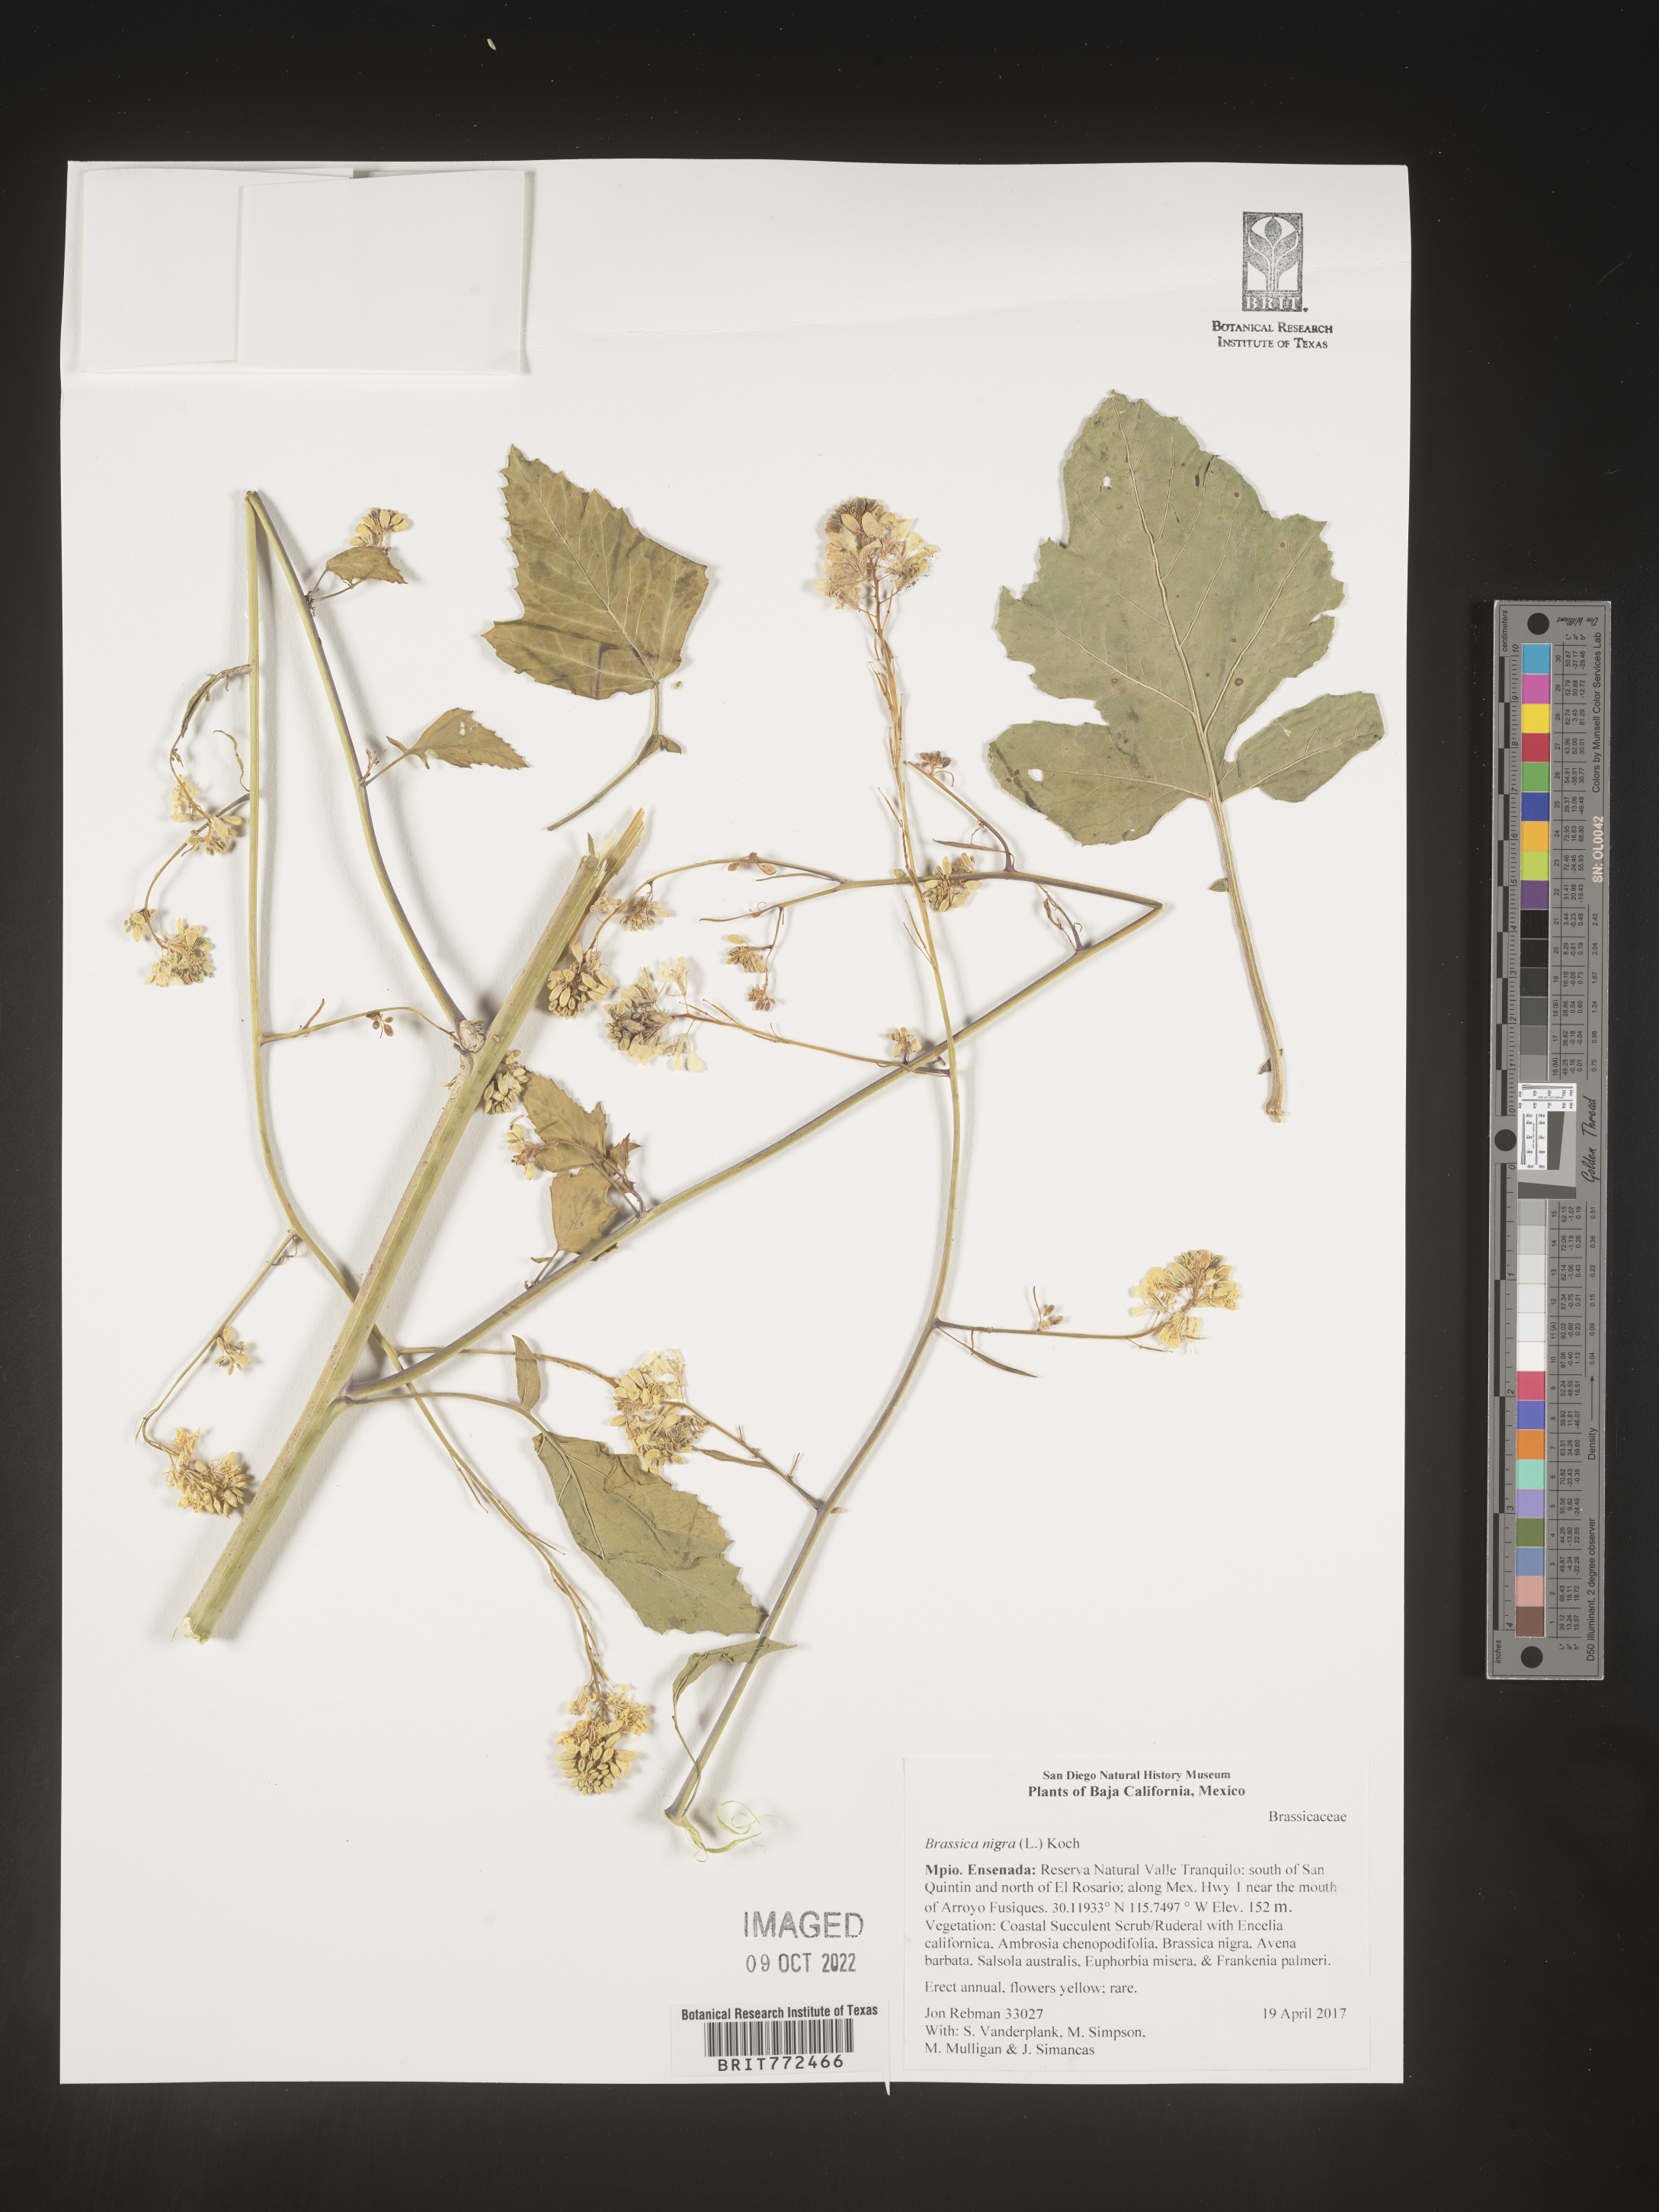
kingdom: Plantae
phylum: Tracheophyta
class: Magnoliopsida
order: Brassicales
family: Brassicaceae
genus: Brassica
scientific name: Brassica
